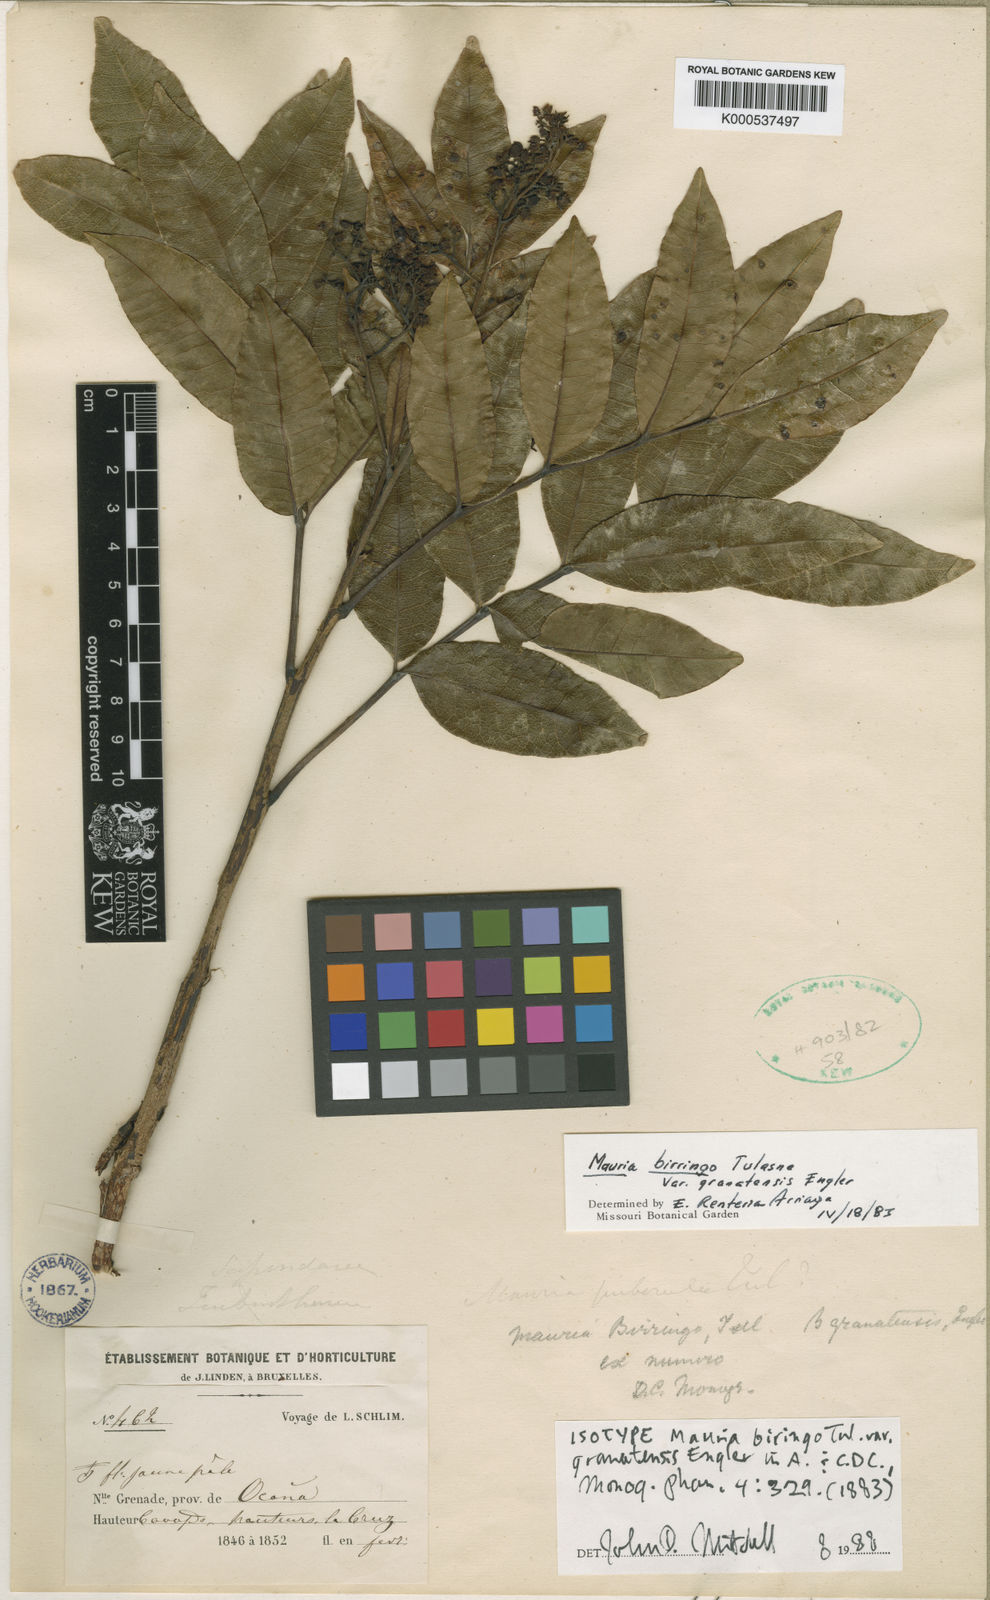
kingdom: Plantae
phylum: Tracheophyta
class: Magnoliopsida
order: Sapindales
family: Anacardiaceae
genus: Mauria
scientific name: Mauria heterophylla
